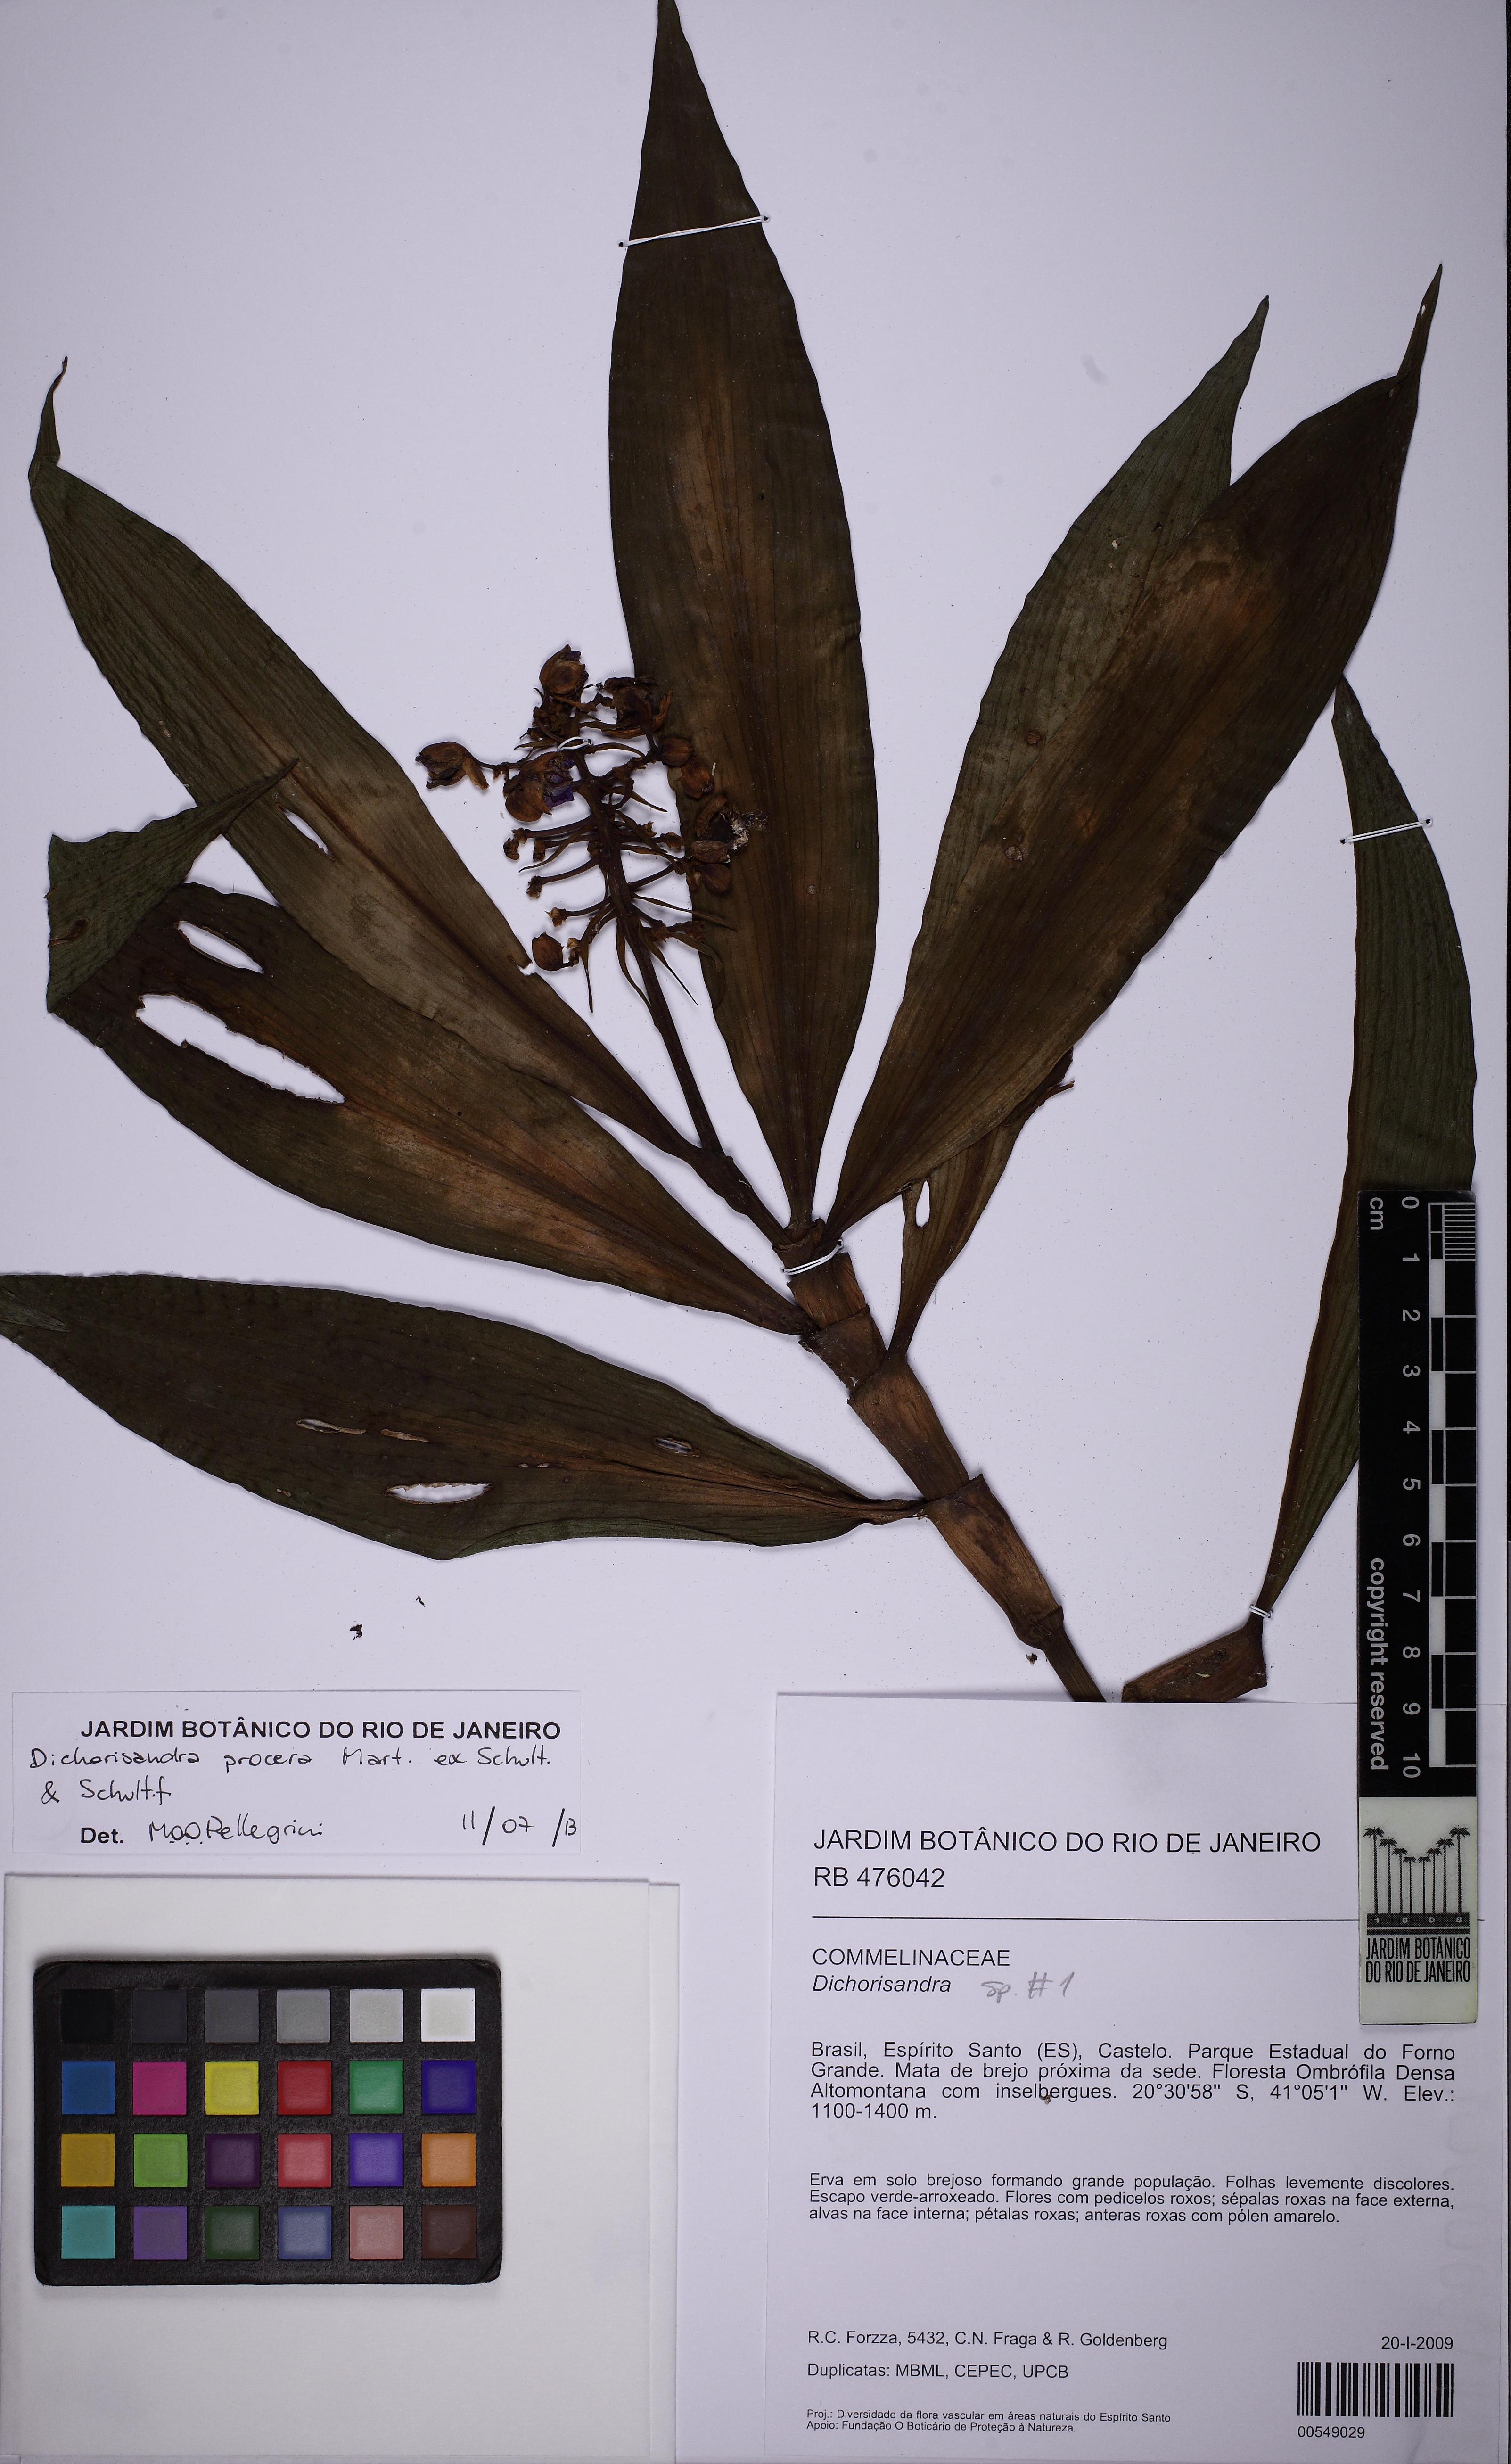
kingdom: Plantae
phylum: Tracheophyta
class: Liliopsida
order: Commelinales
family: Commelinaceae
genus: Dichorisandra
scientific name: Dichorisandra procera
